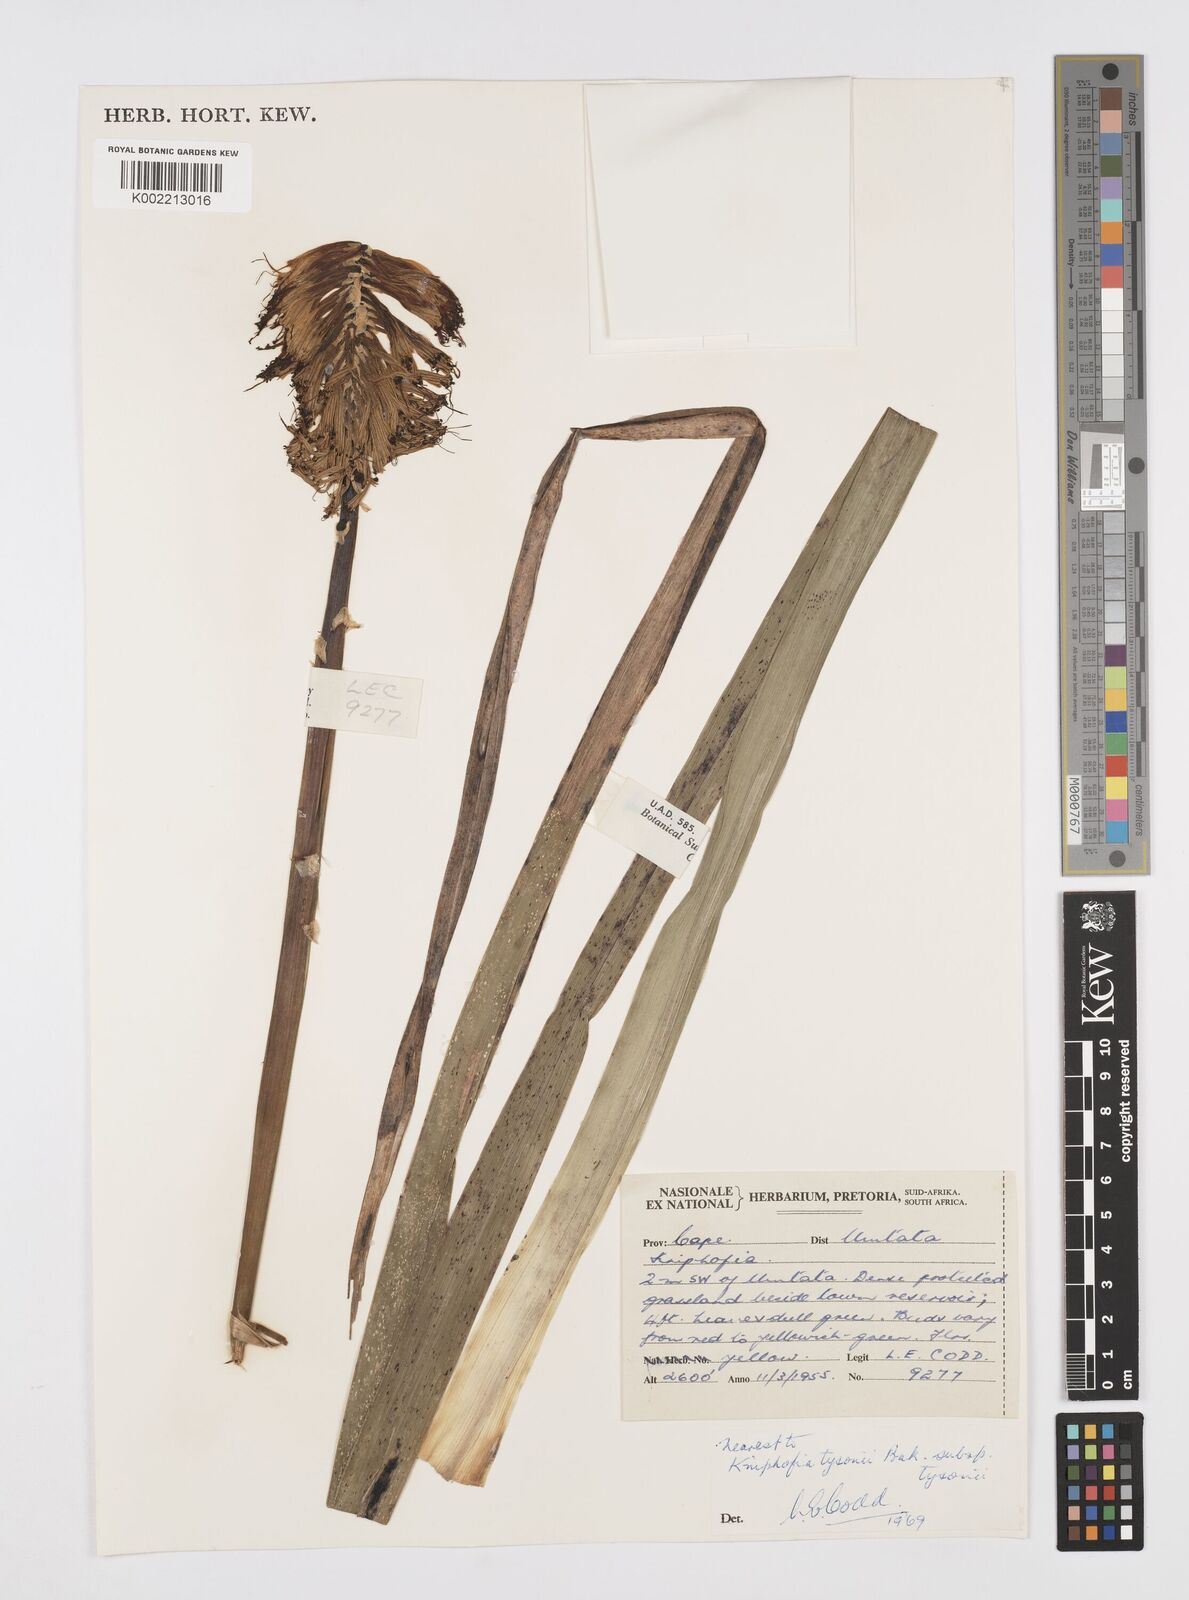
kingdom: Plantae
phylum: Tracheophyta
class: Liliopsida
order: Asparagales
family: Asphodelaceae
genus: Kniphofia
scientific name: Kniphofia tysonii
